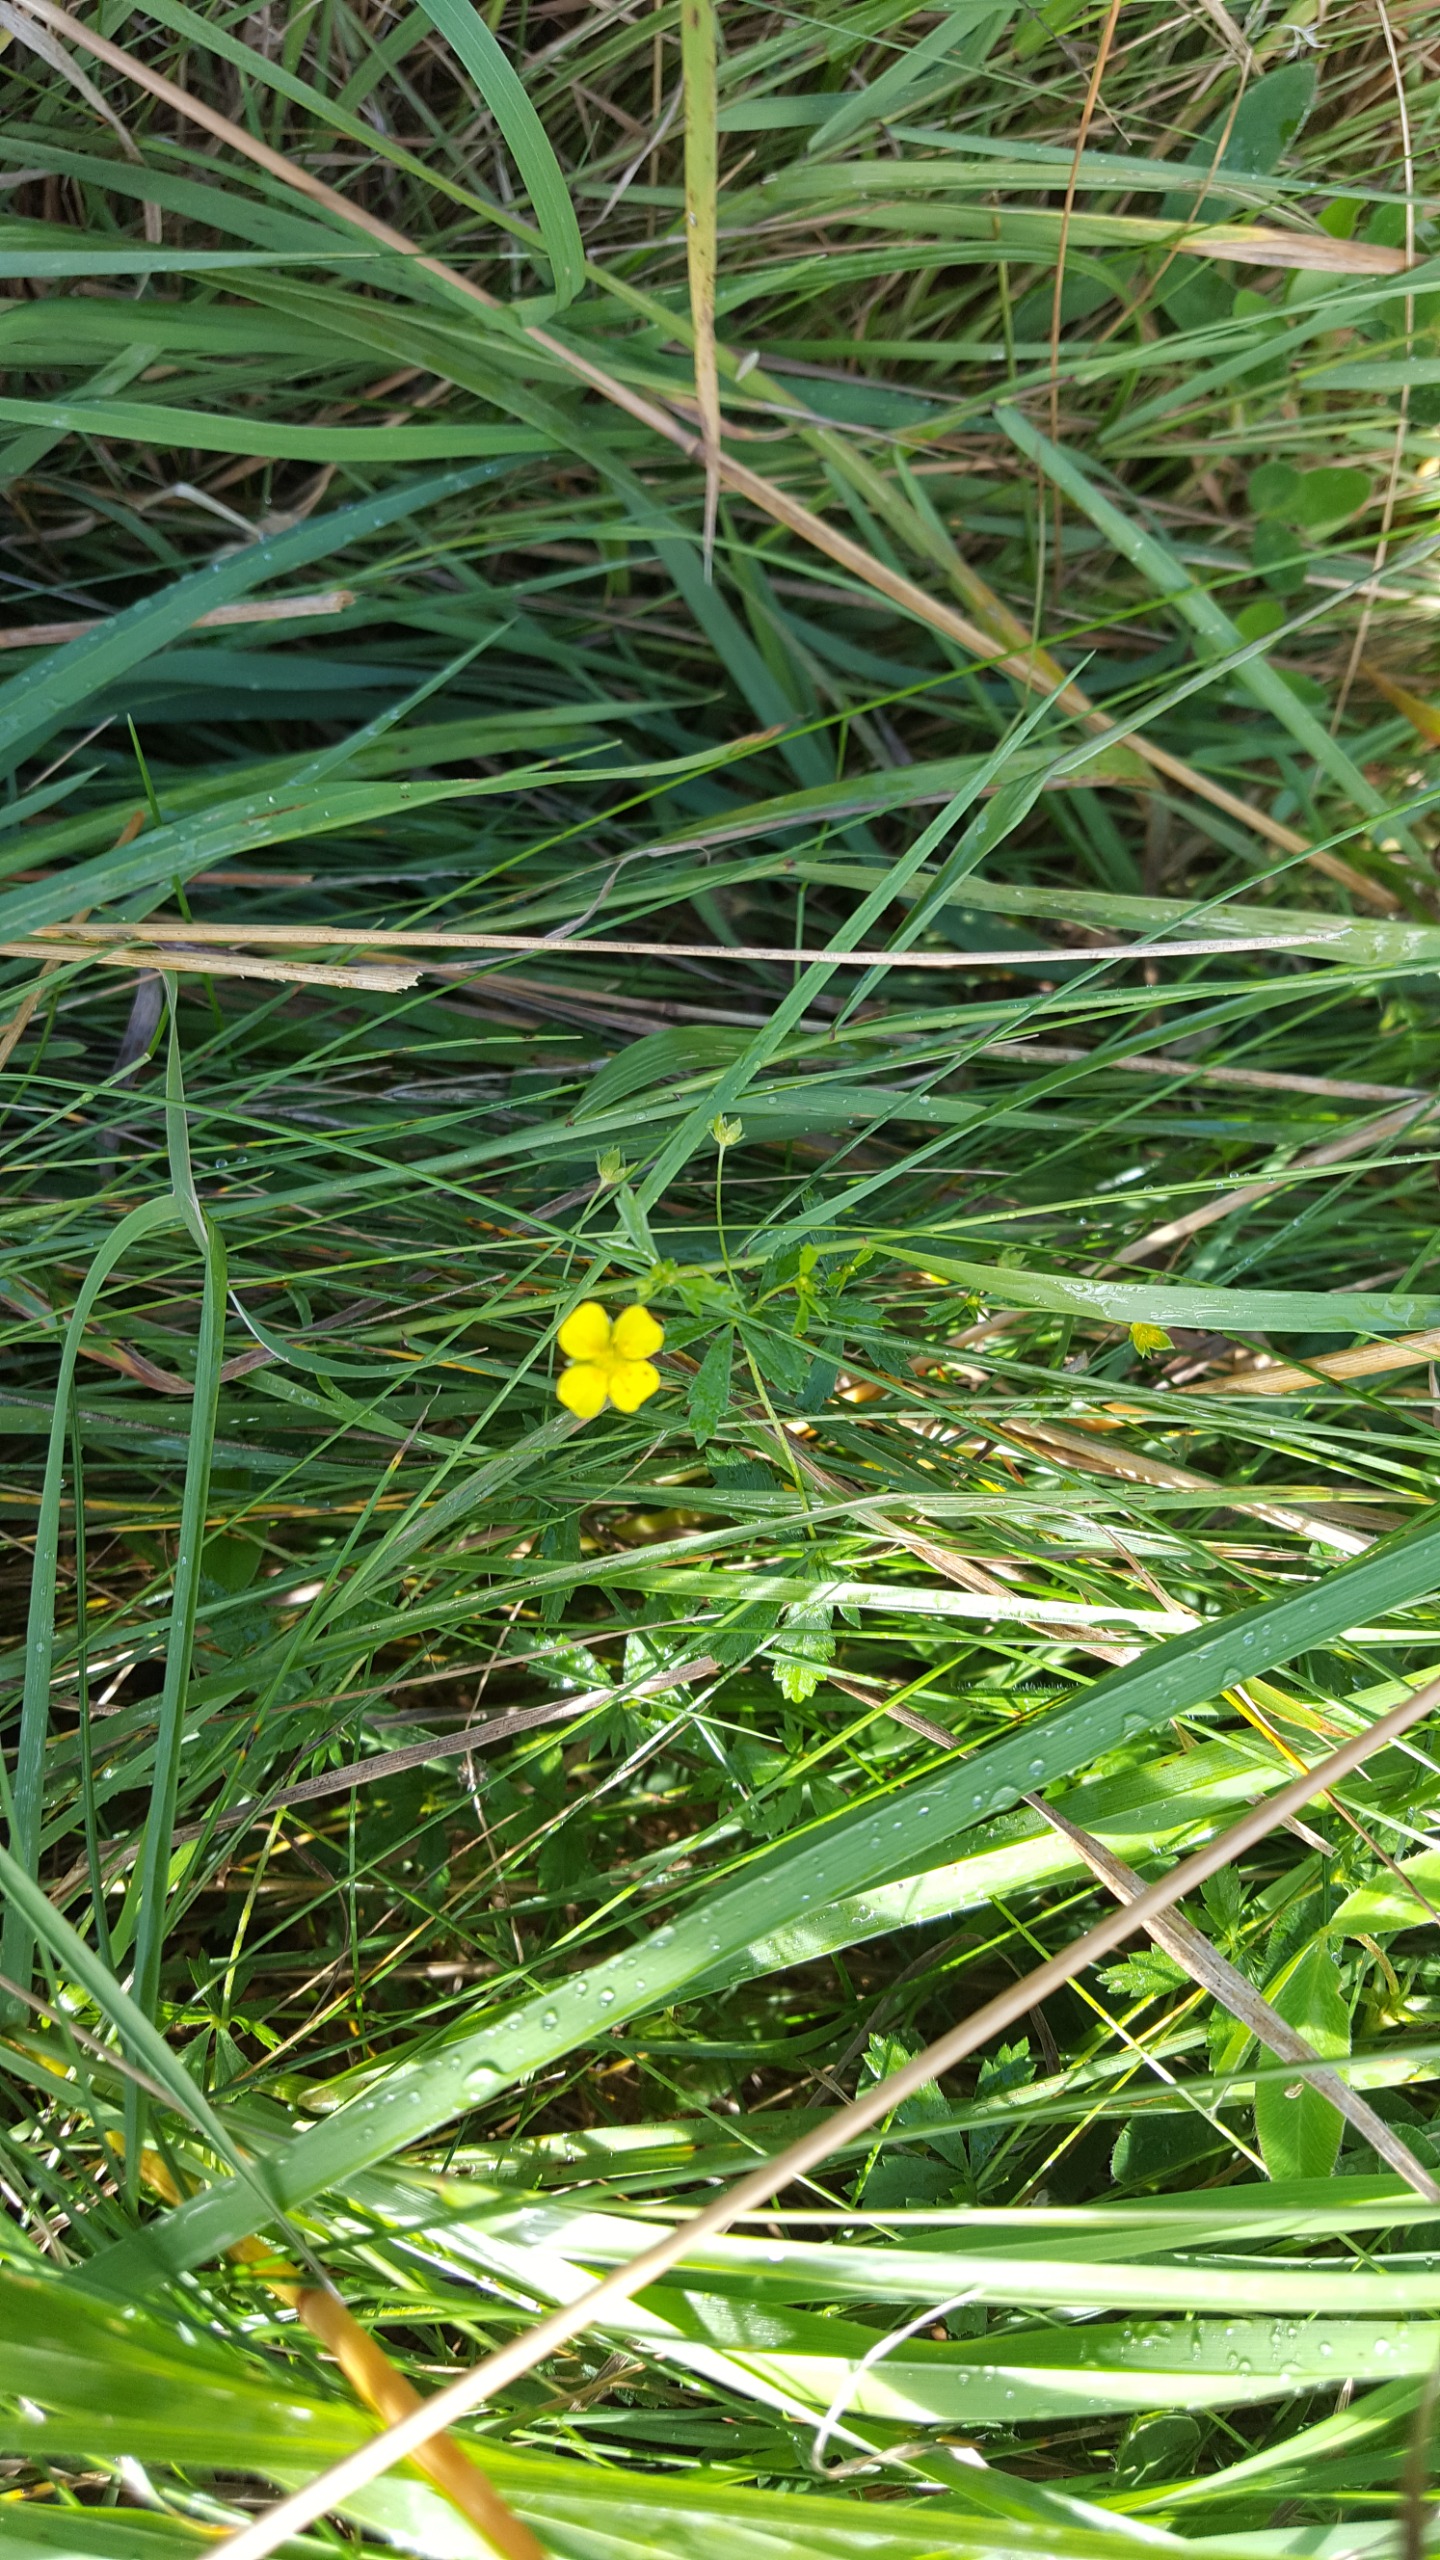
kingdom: Plantae
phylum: Tracheophyta
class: Magnoliopsida
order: Rosales
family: Rosaceae
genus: Potentilla
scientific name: Potentilla erecta
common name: Tormentil
